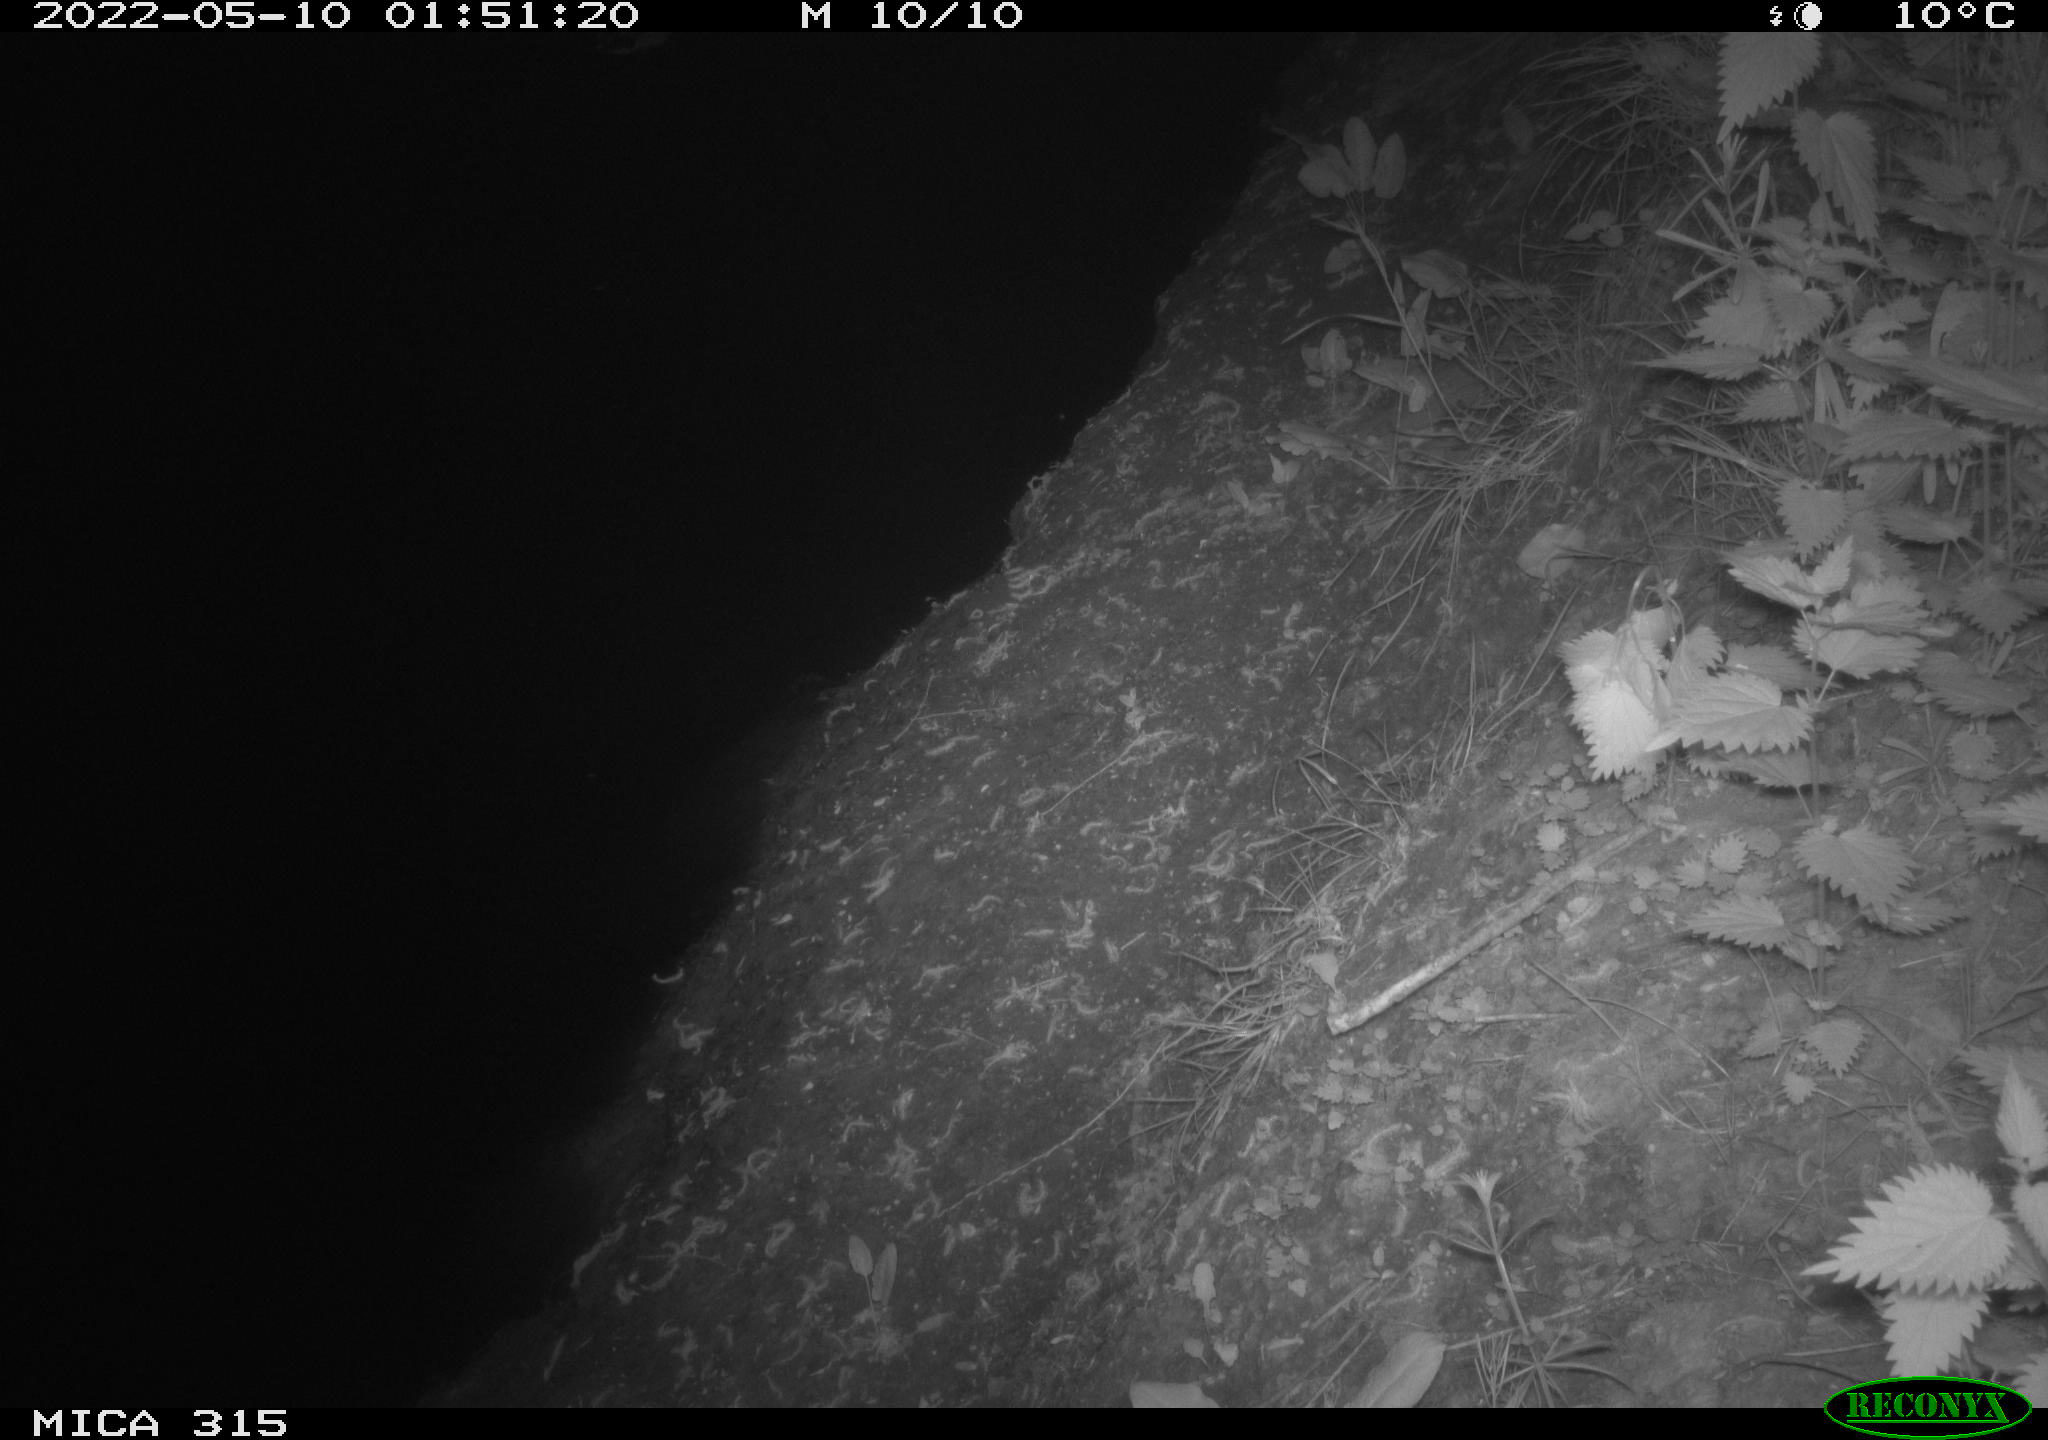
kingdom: Animalia
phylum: Chordata
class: Aves
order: Anseriformes
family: Anatidae
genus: Anas
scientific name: Anas platyrhynchos
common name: Mallard
